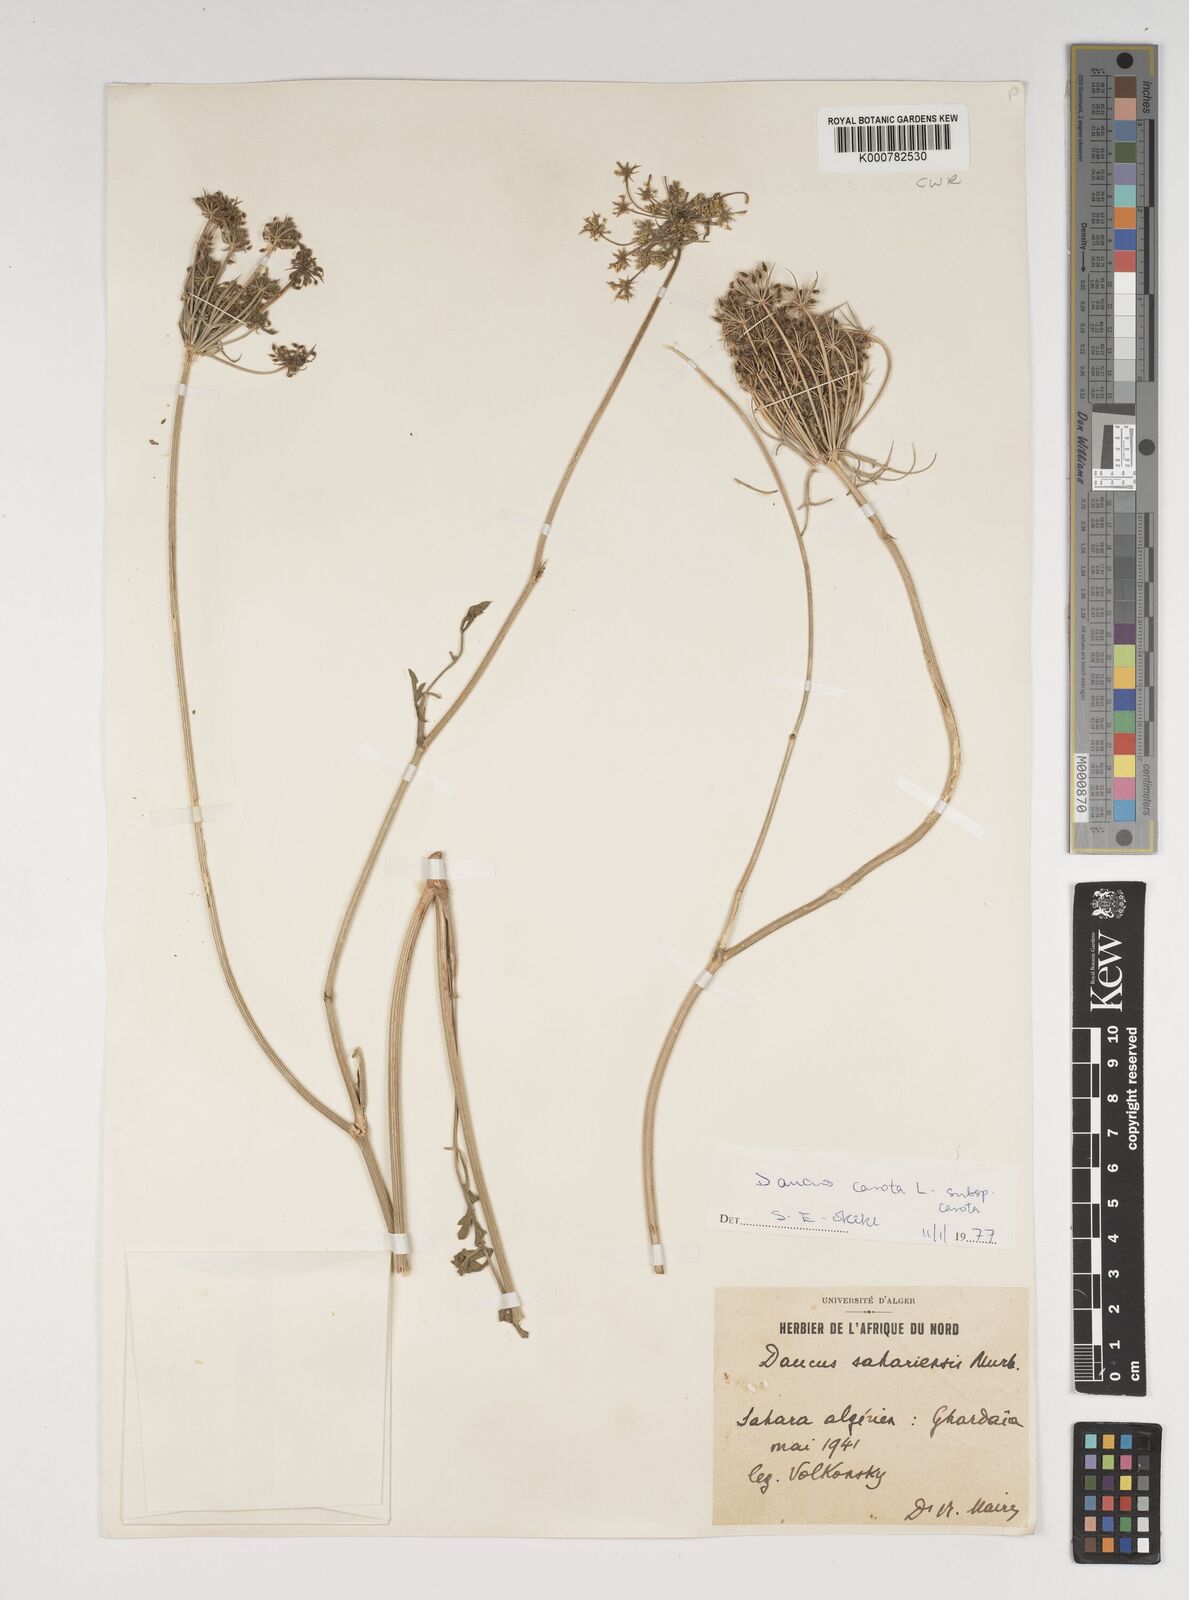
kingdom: Plantae
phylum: Tracheophyta
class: Magnoliopsida
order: Apiales
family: Apiaceae
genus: Daucus
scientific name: Daucus carota
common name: Wild carrot
